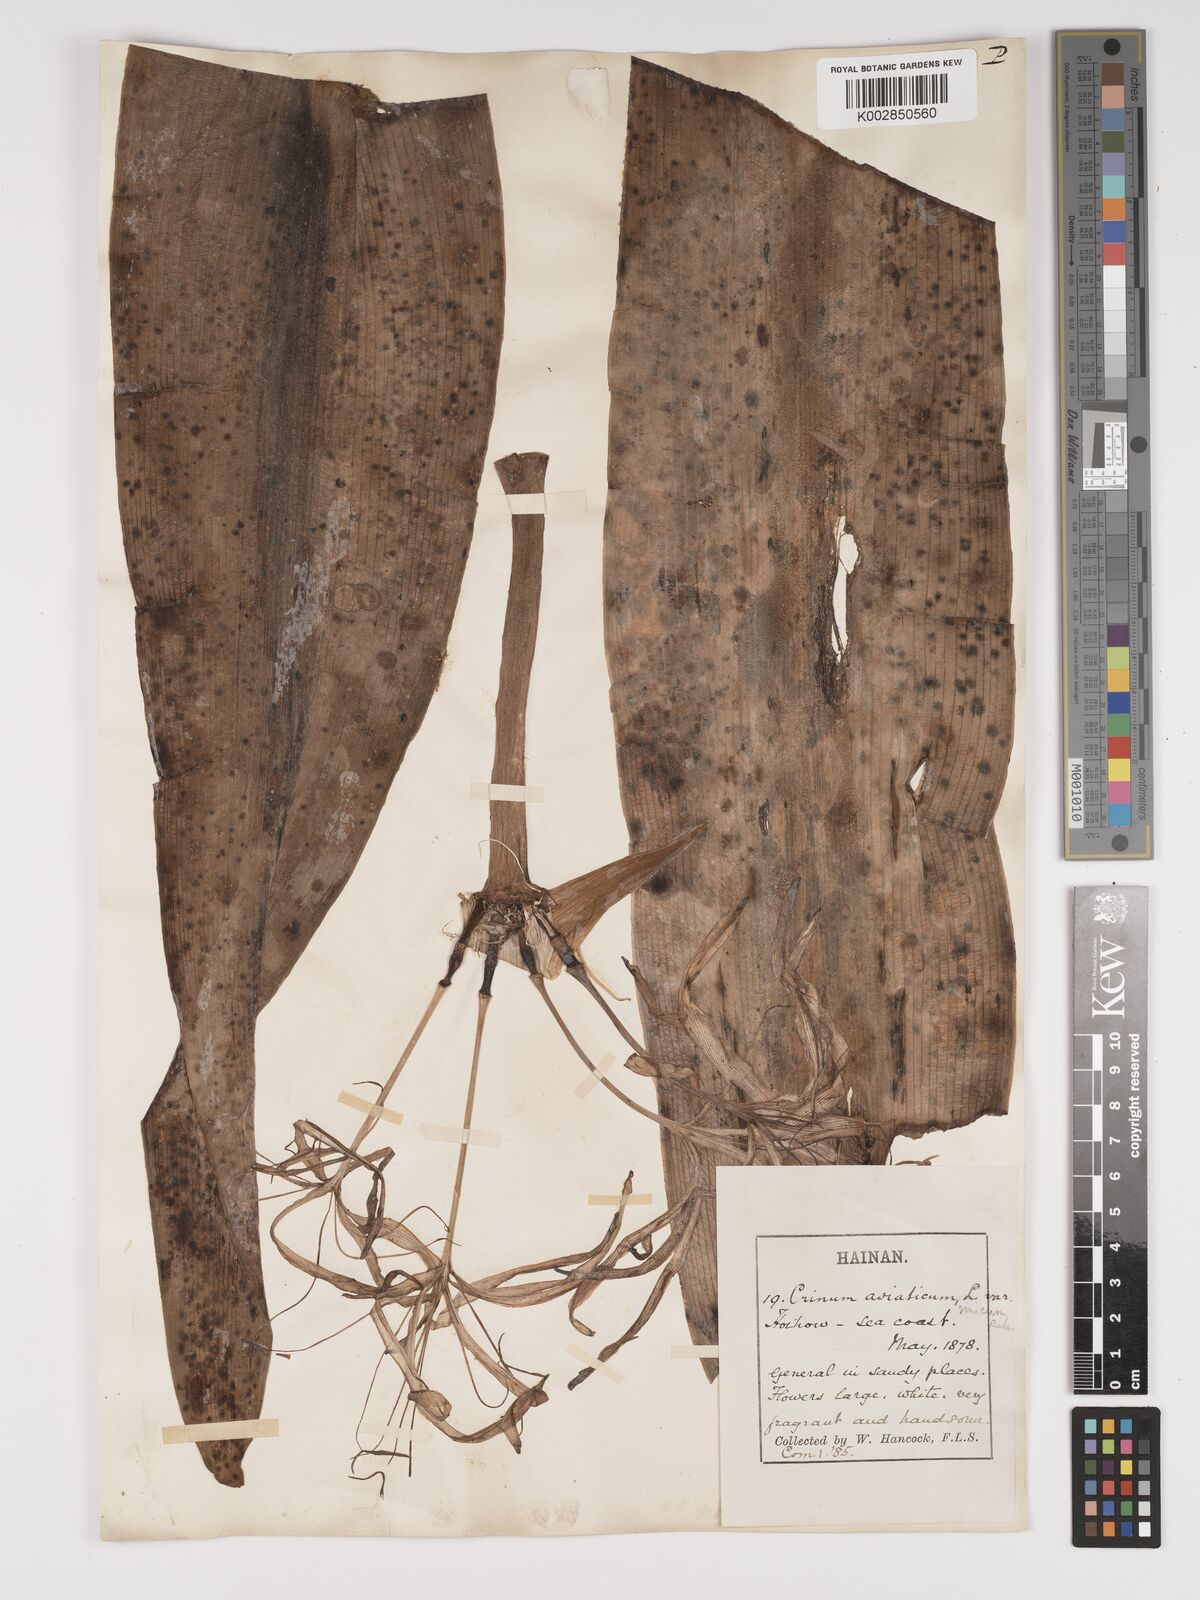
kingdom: Plantae
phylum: Tracheophyta
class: Liliopsida
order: Asparagales
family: Amaryllidaceae
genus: Crinum
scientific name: Crinum asiaticum
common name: Poisonbulb
